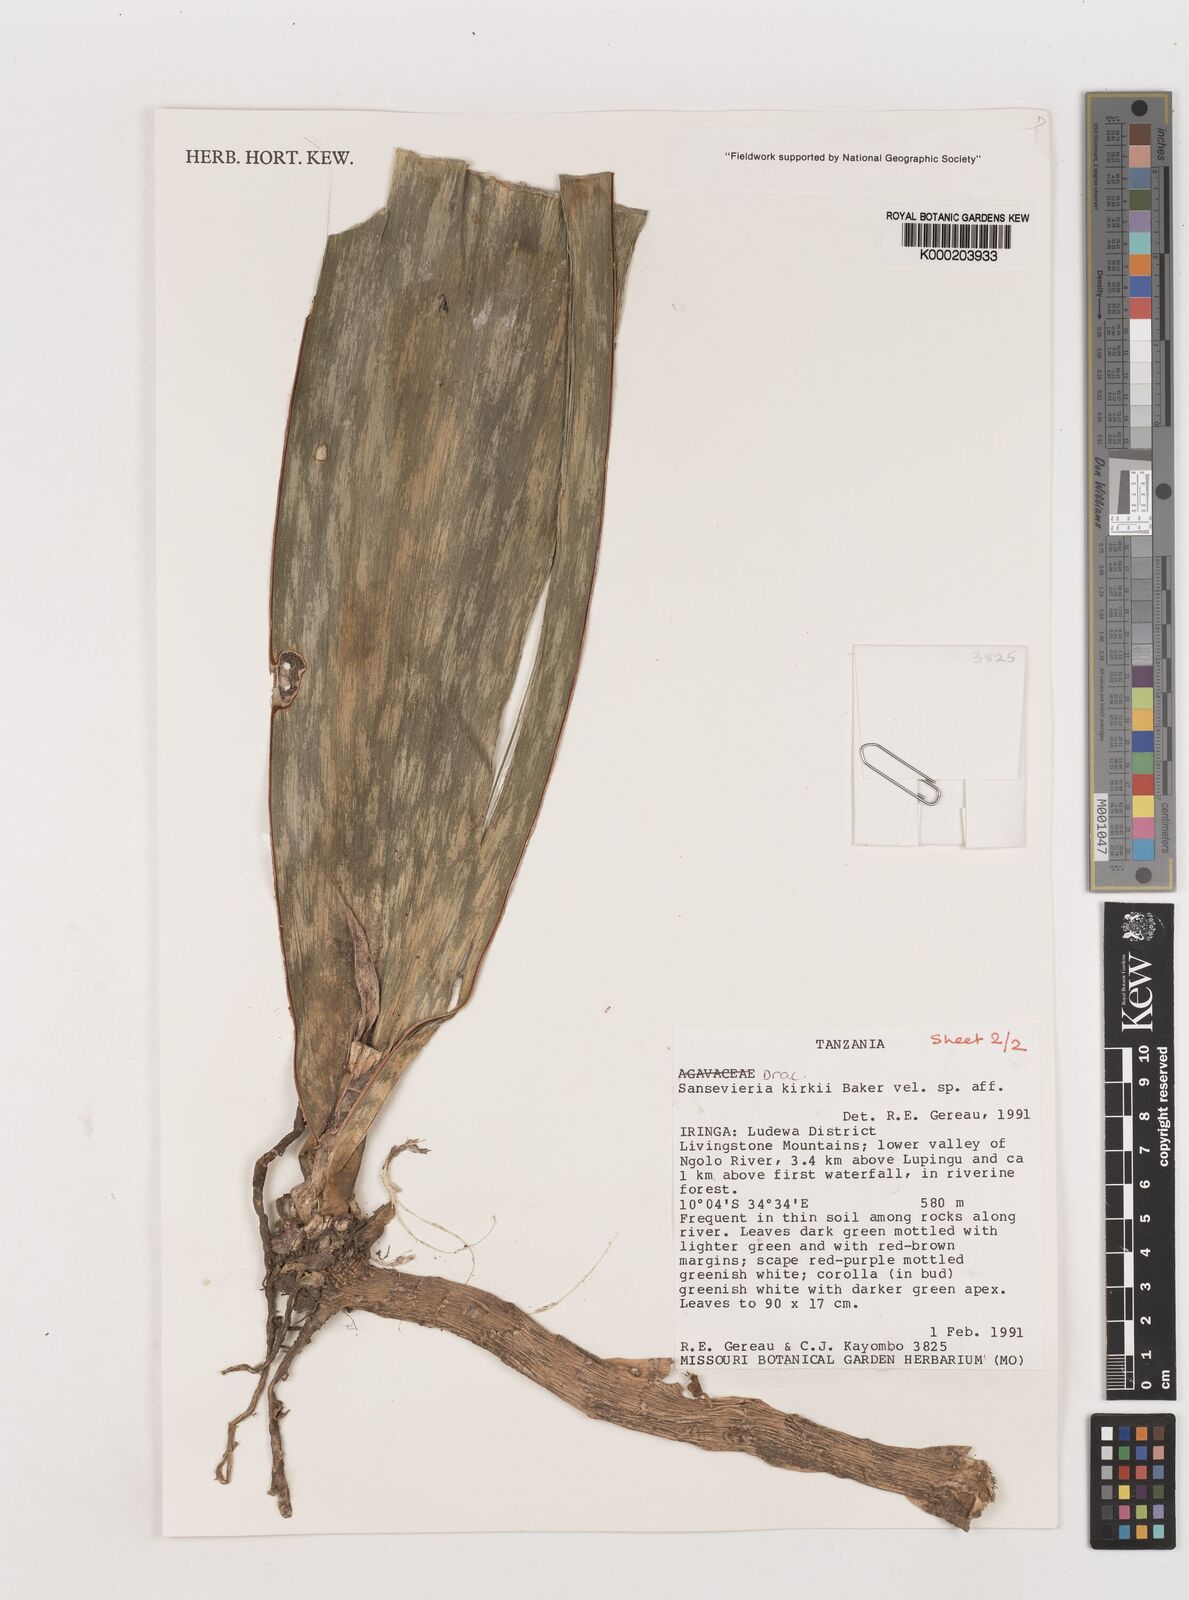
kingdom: Plantae
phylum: Tracheophyta
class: Liliopsida
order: Asparagales
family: Asparagaceae
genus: Dracaena
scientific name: Dracaena hyacinthoides
